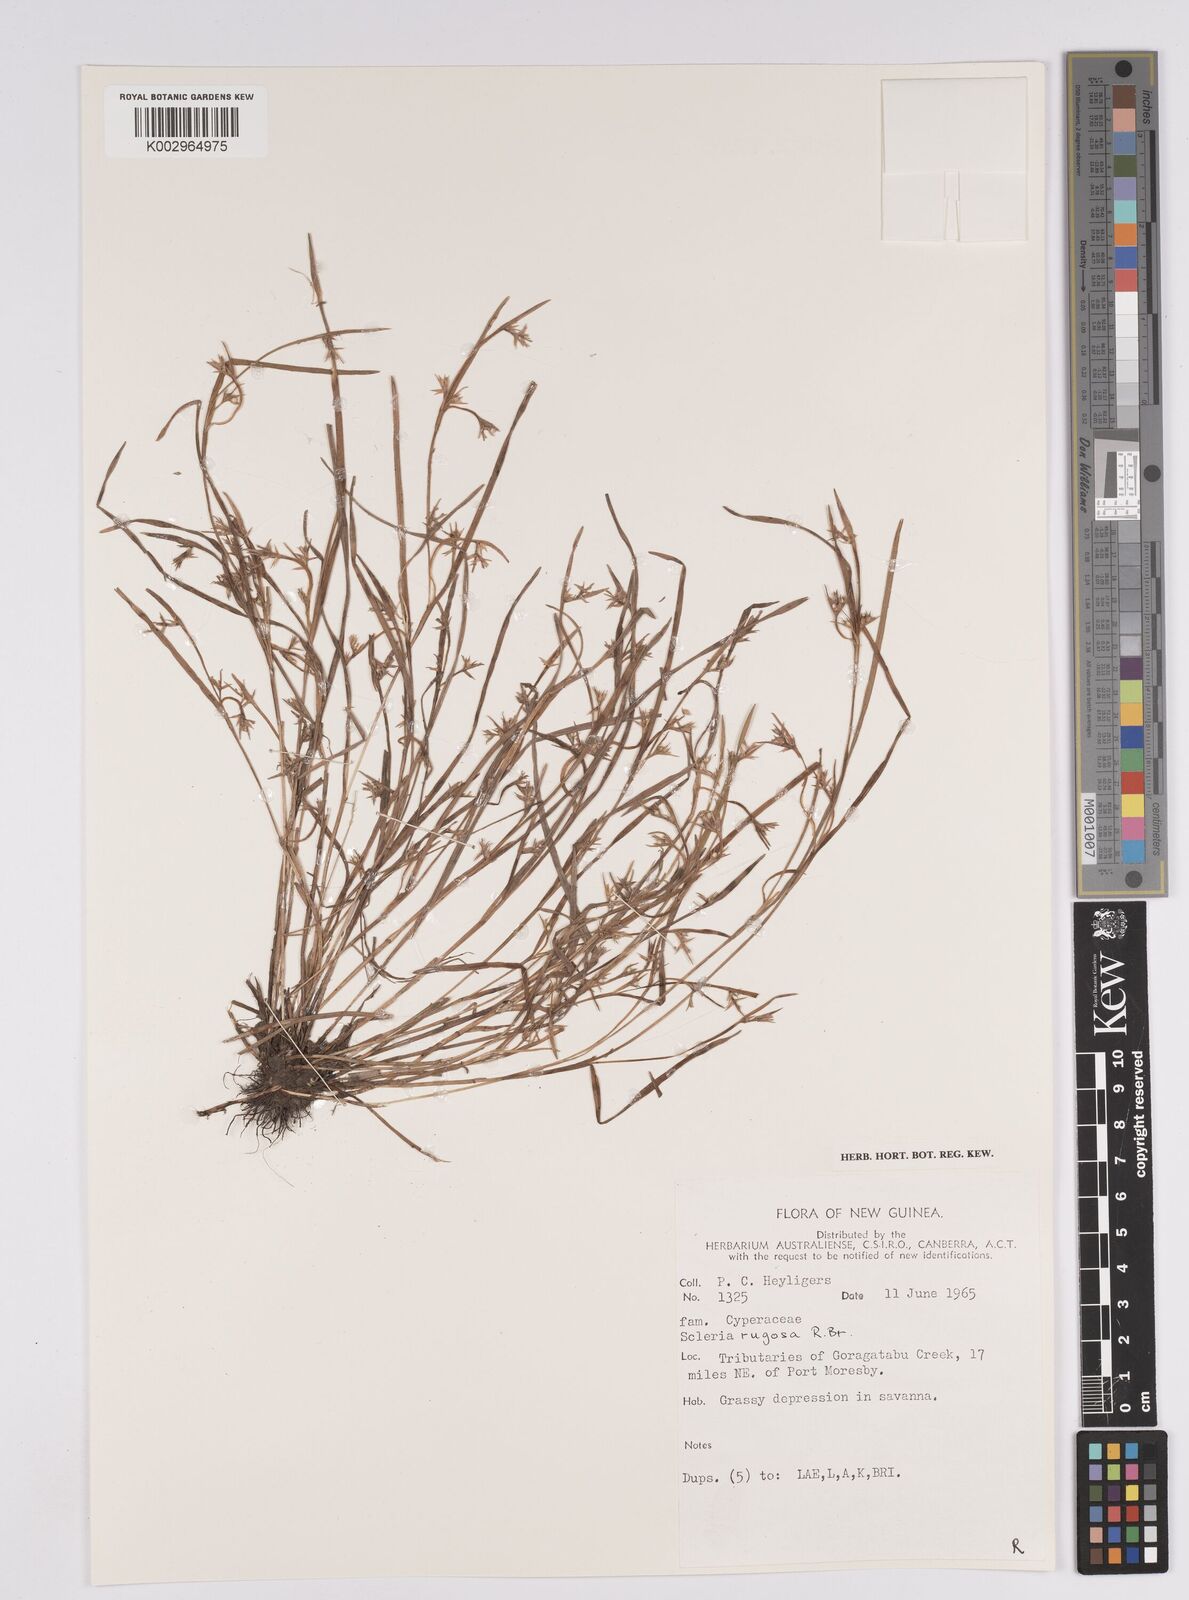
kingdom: Plantae
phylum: Tracheophyta
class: Liliopsida
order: Poales
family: Cyperaceae
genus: Scleria
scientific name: Scleria rugosa
